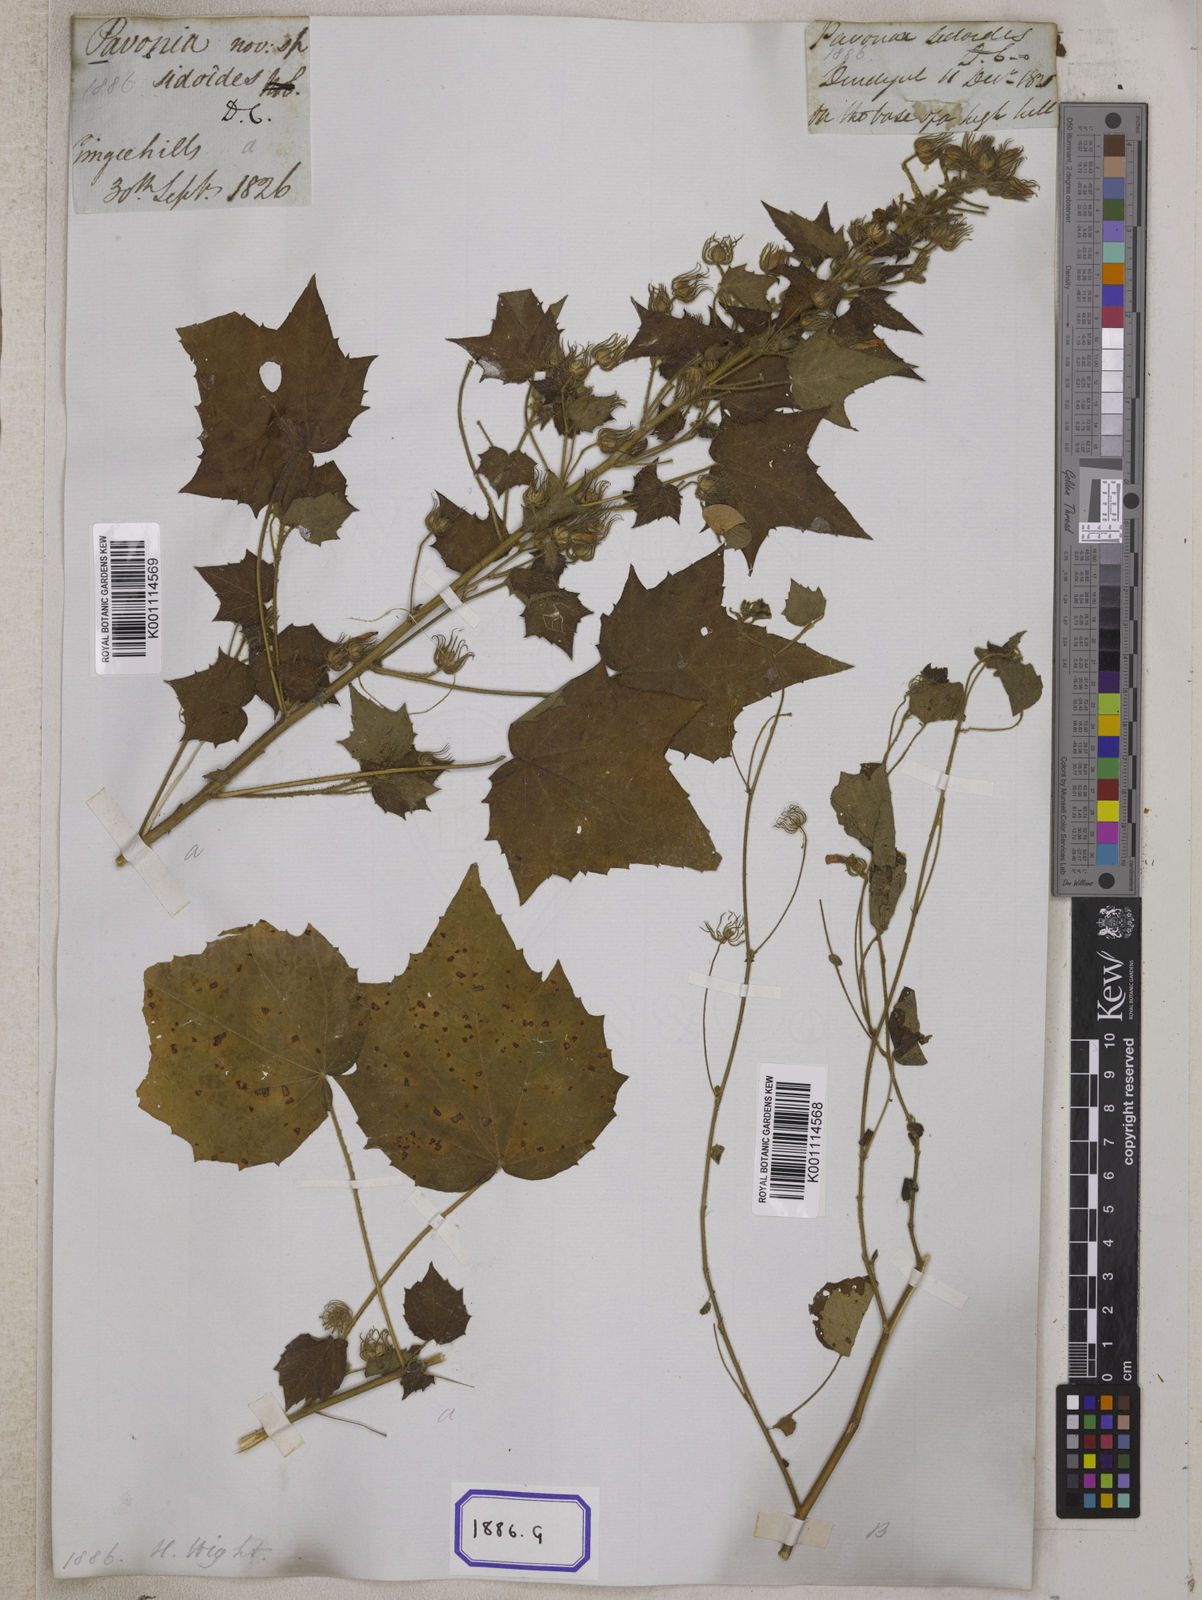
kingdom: Plantae
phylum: Tracheophyta
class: Magnoliopsida
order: Malvales
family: Malvaceae
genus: Pavonia
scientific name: Pavonia zeylonica
